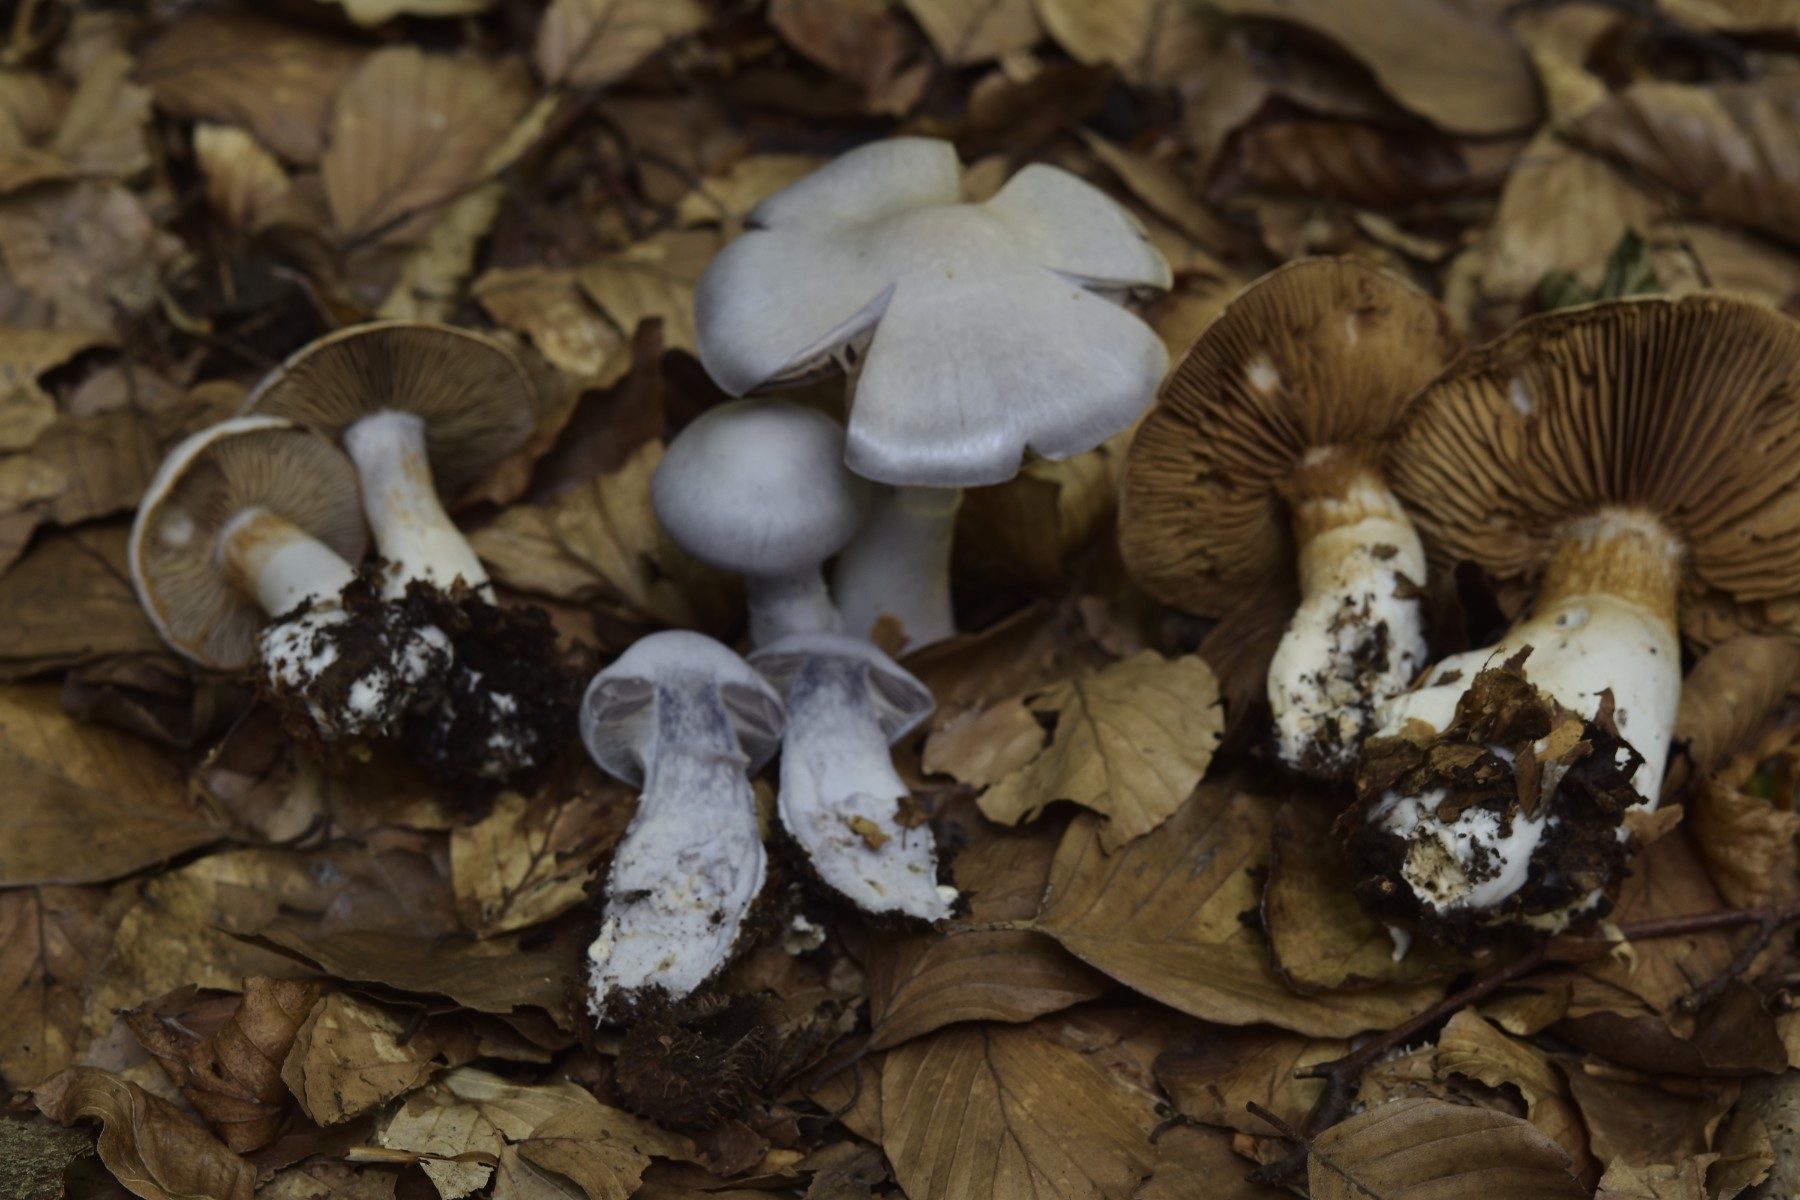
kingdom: Fungi
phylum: Basidiomycota
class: Agaricomycetes
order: Agaricales
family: Cortinariaceae
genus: Cortinarius
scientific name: Cortinarius alboviolaceus
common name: lysviolet slørhat
